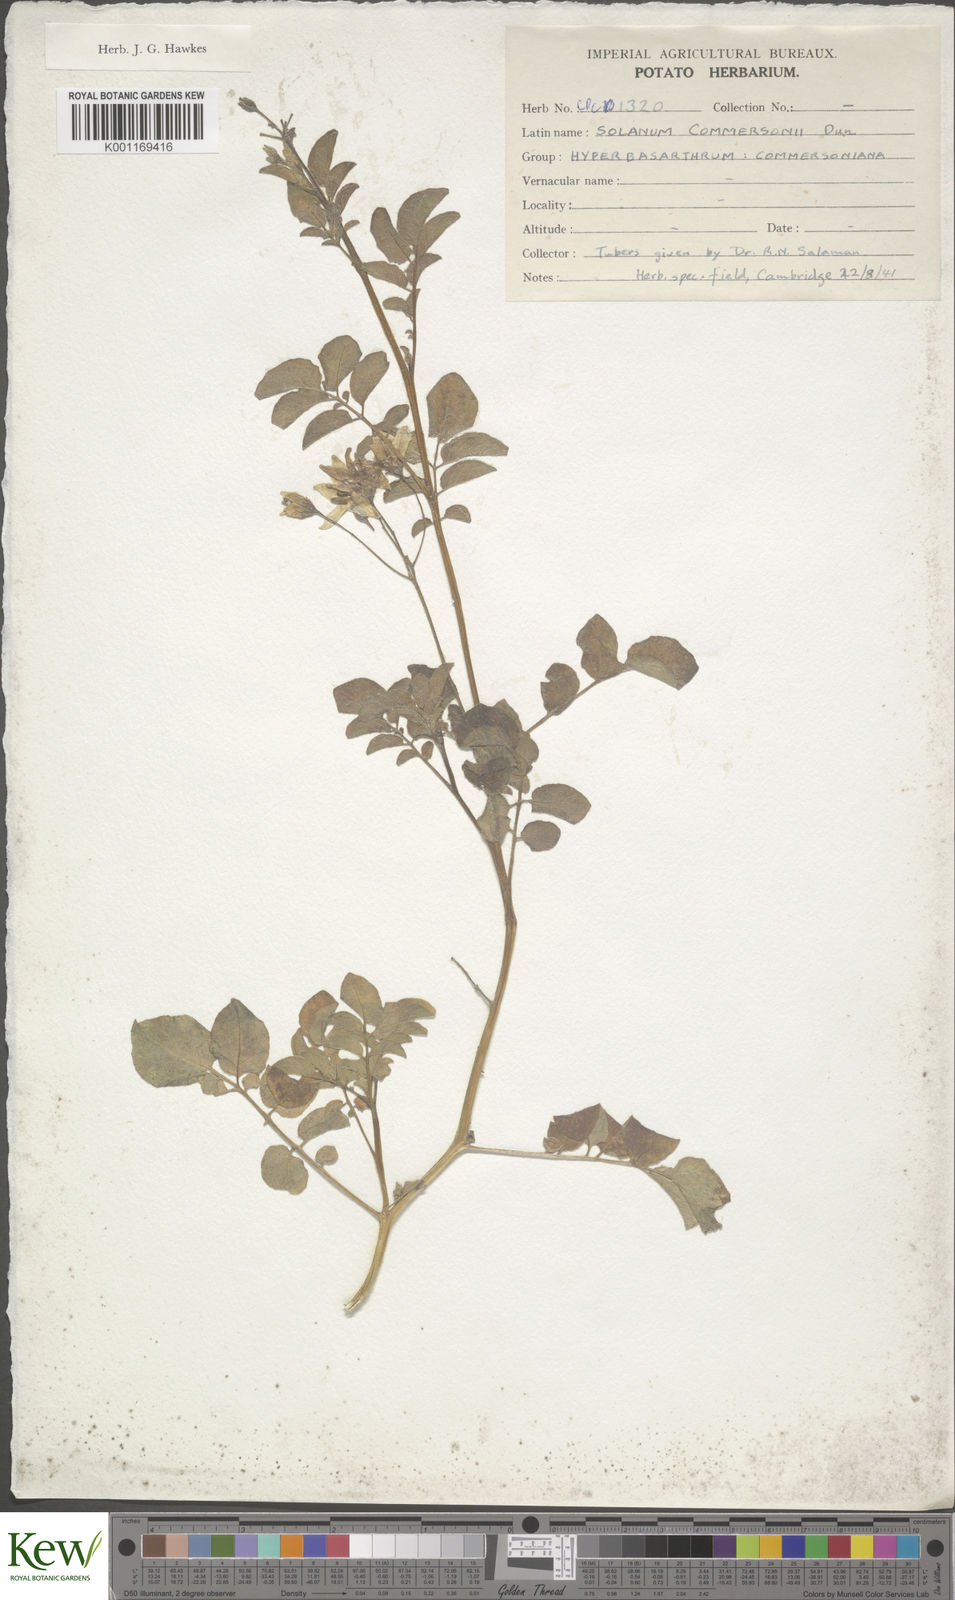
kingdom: Plantae
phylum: Tracheophyta
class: Magnoliopsida
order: Solanales
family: Solanaceae
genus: Solanum
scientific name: Solanum commersonii
